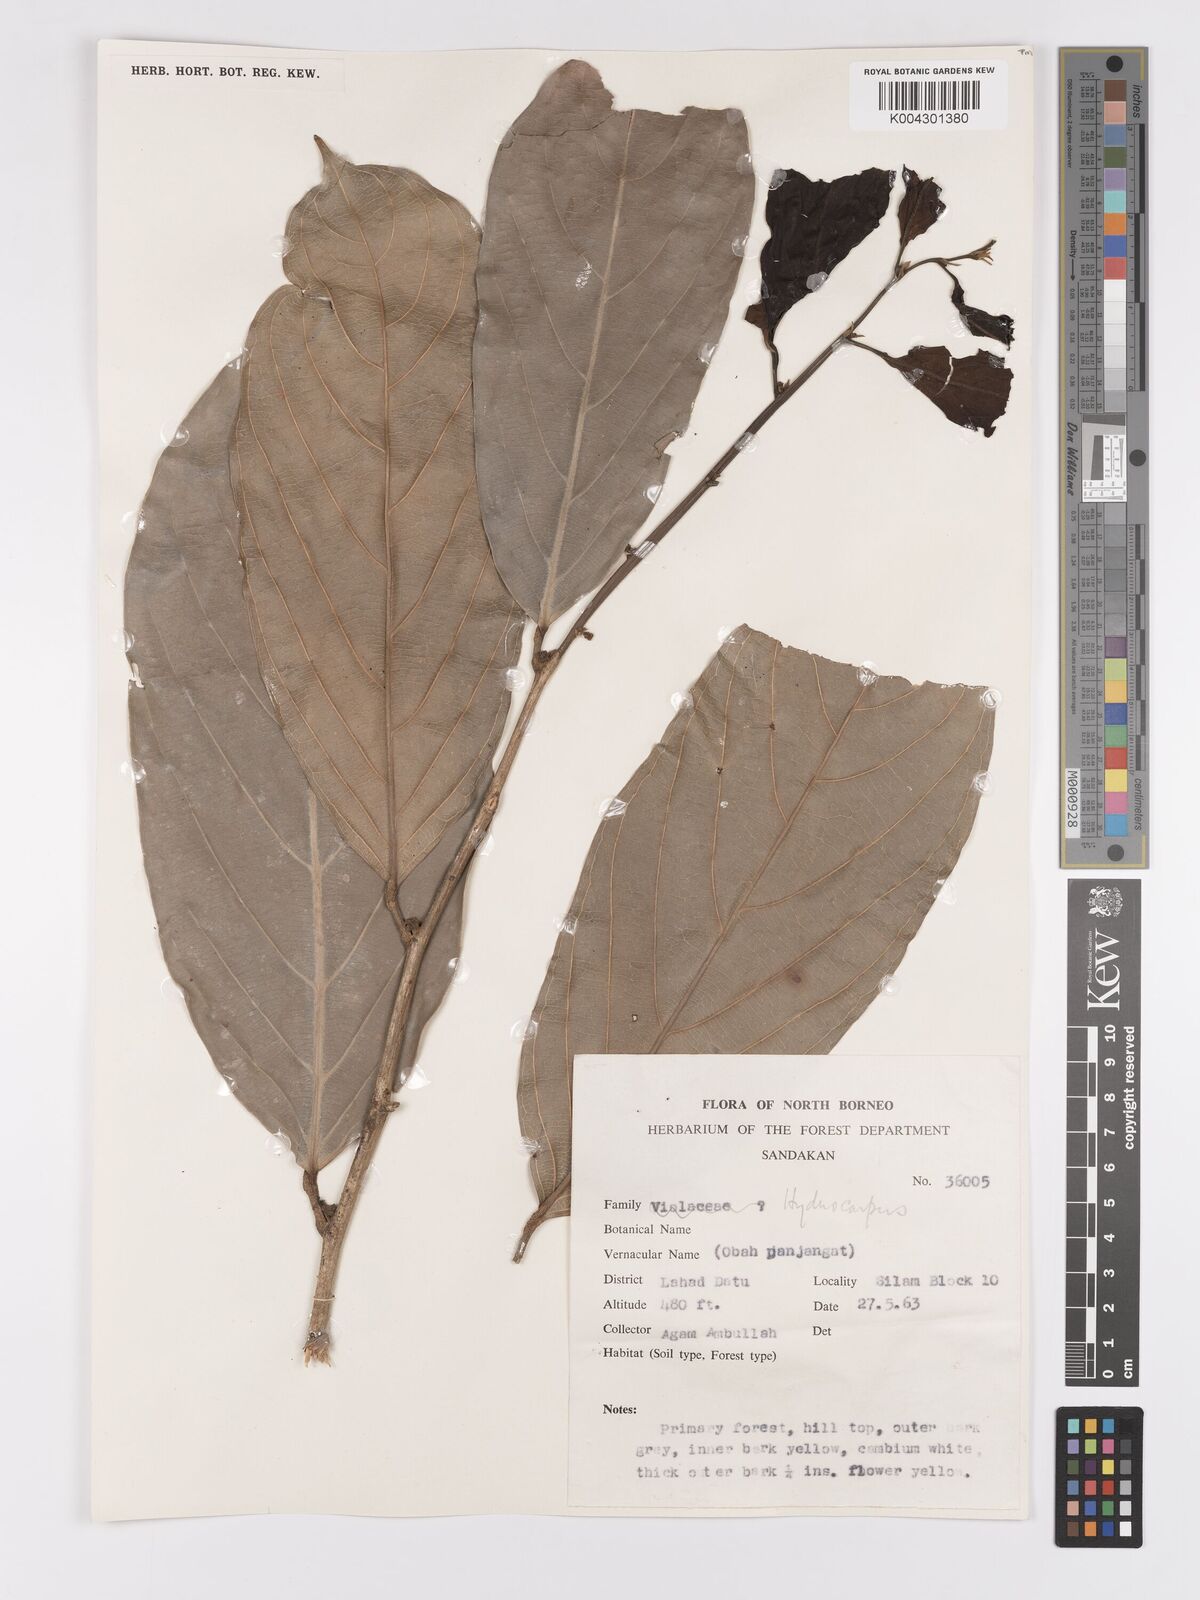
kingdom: Plantae
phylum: Tracheophyta
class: Magnoliopsida
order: Malpighiales
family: Achariaceae
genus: Hydnocarpus
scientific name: Hydnocarpus
